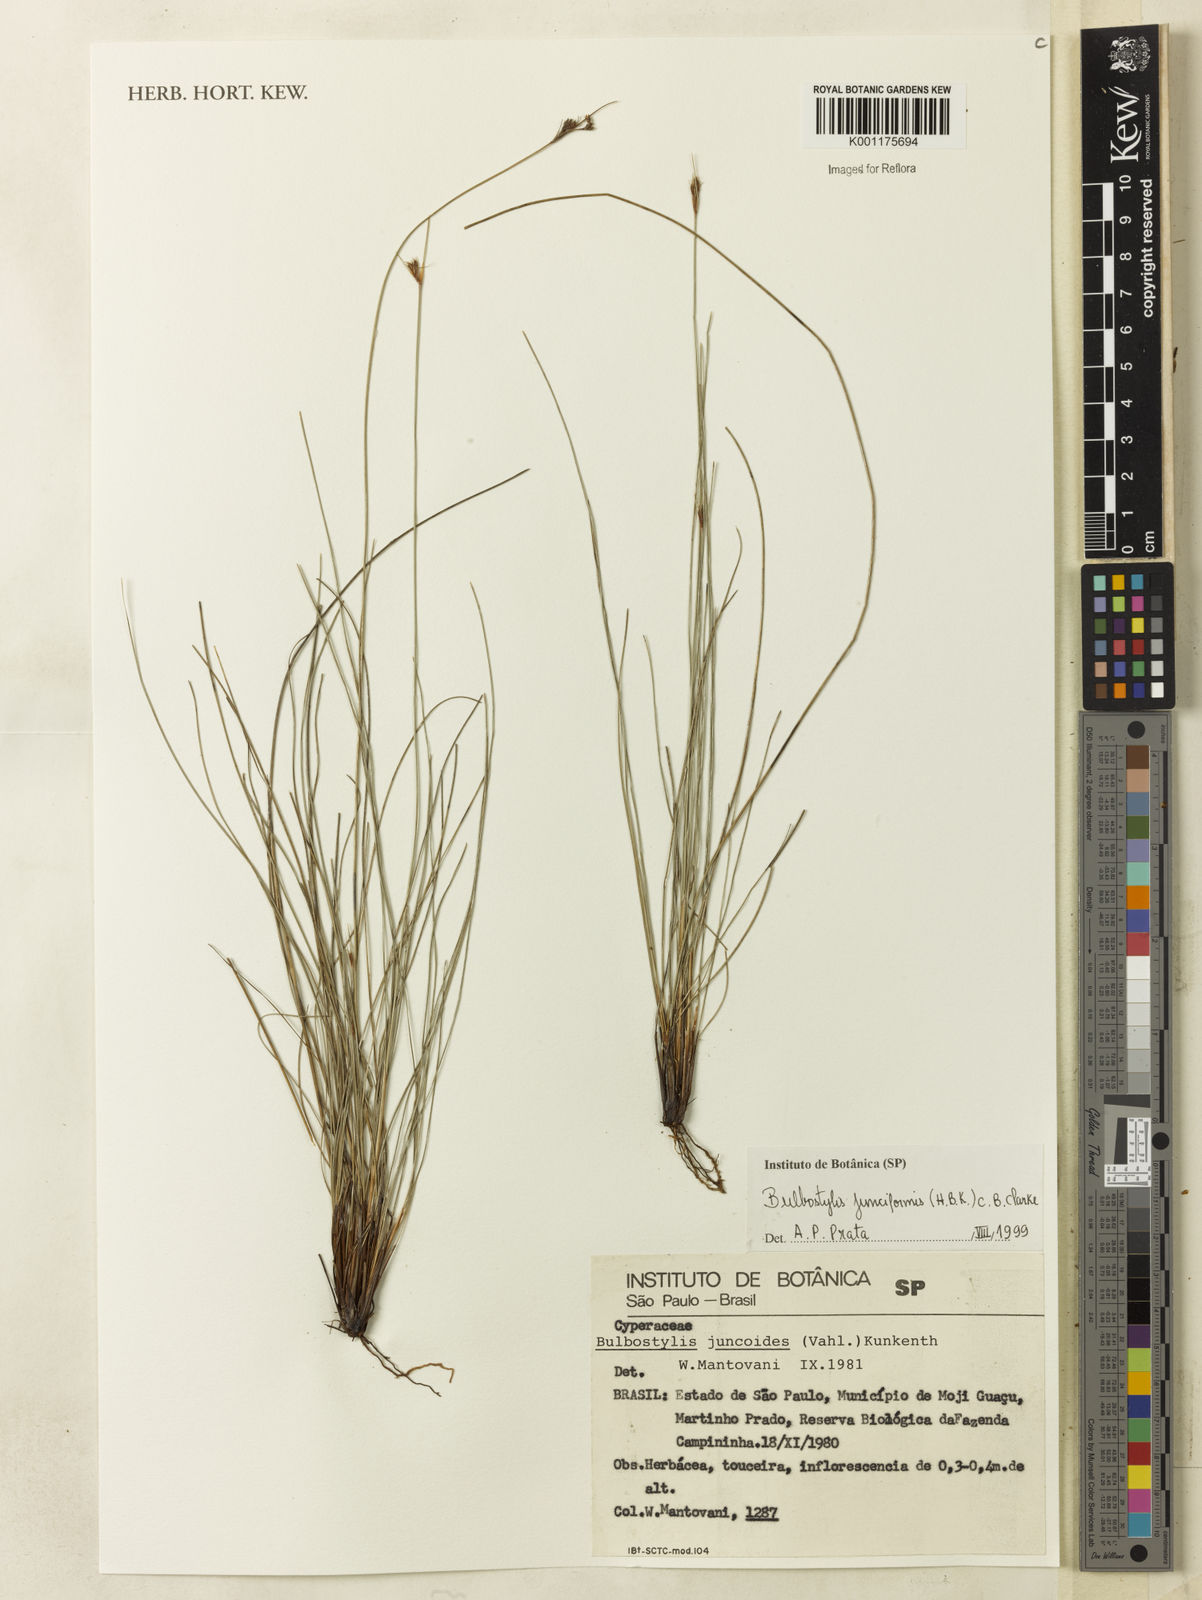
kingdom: Plantae
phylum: Tracheophyta
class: Liliopsida
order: Poales
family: Cyperaceae
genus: Bulbostylis
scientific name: Bulbostylis junciformis
